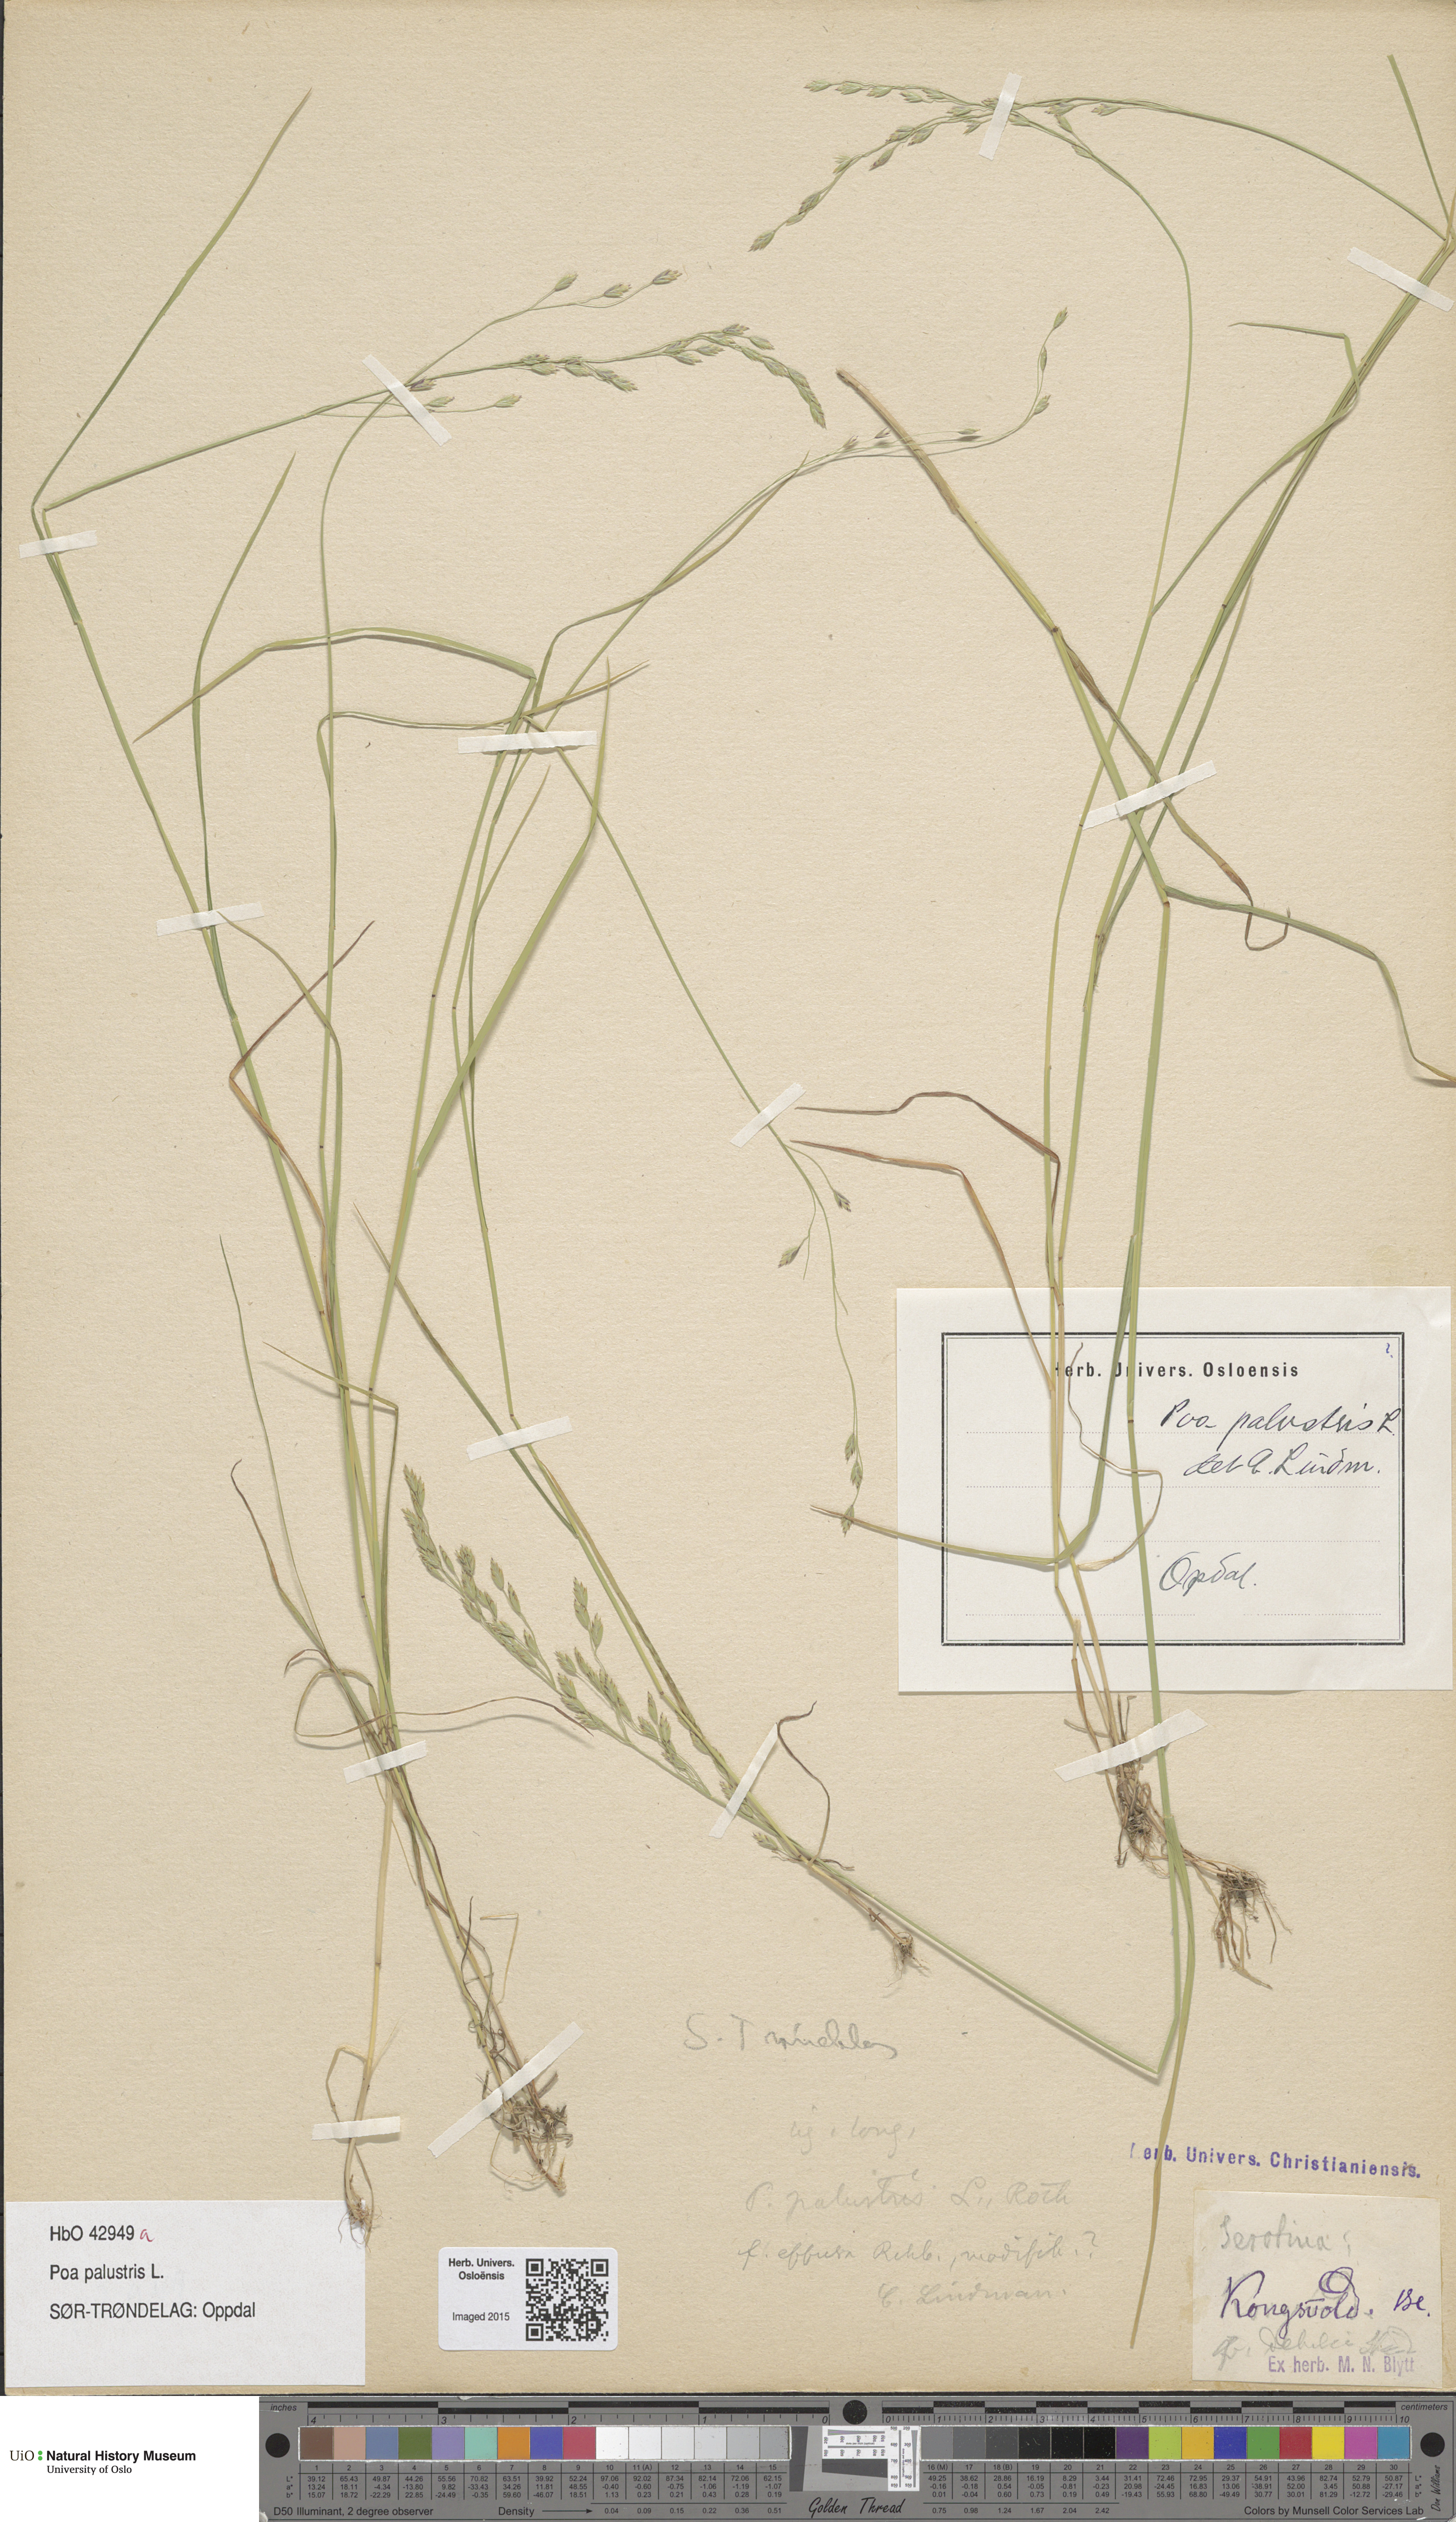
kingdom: Plantae
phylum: Tracheophyta
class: Liliopsida
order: Poales
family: Poaceae
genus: Poa
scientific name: Poa palustris
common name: Swamp meadow-grass
